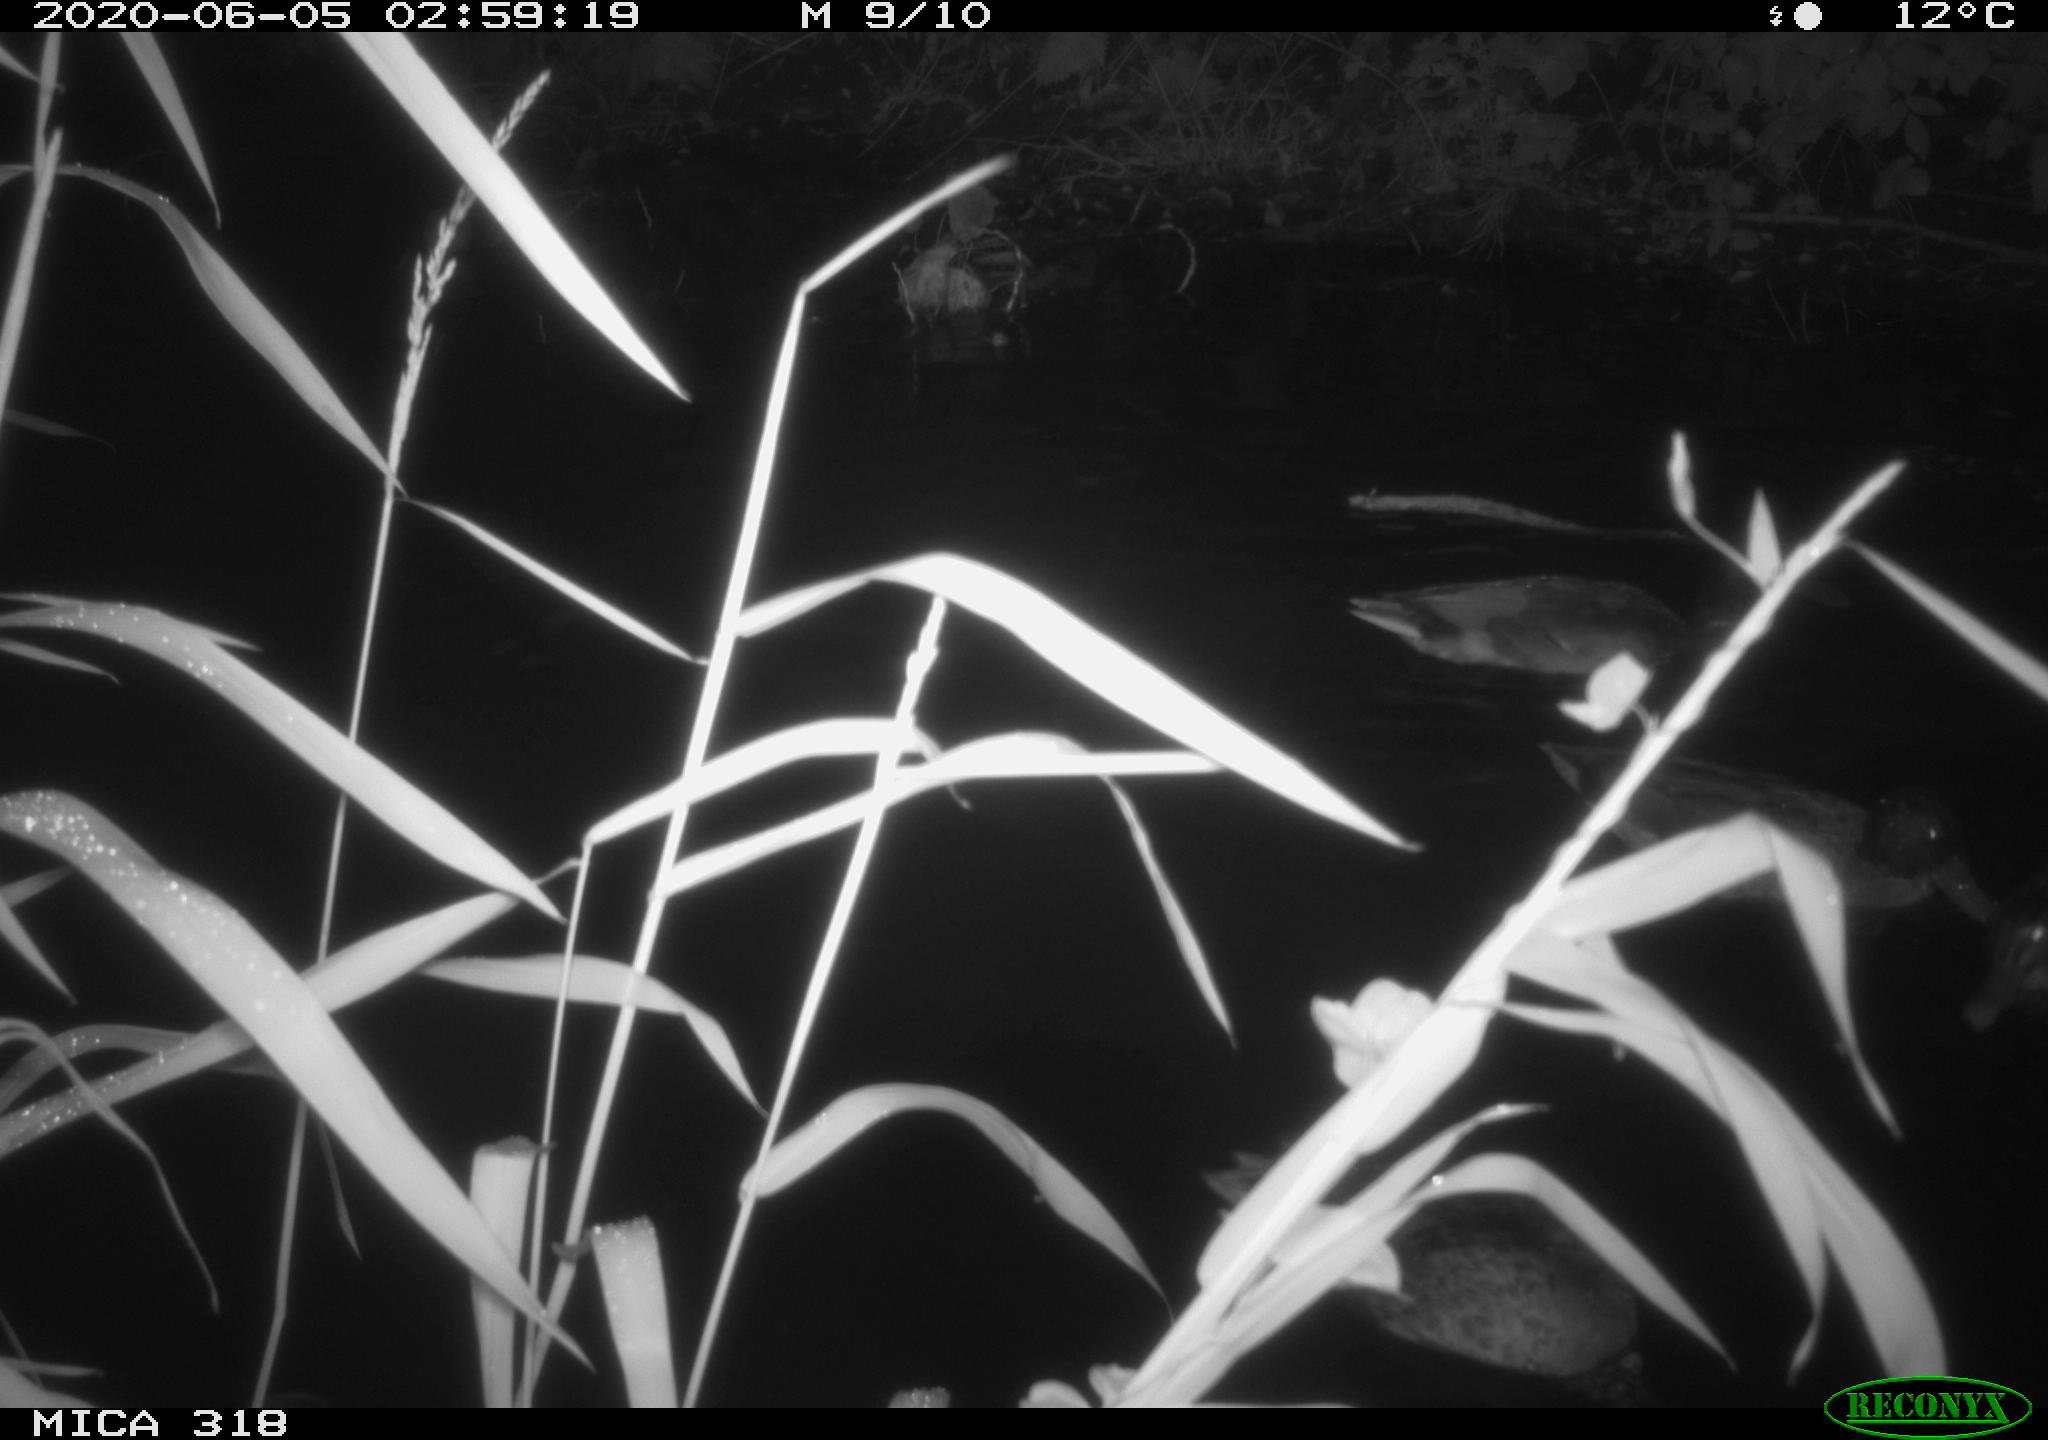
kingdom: Animalia
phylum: Chordata
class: Aves
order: Anseriformes
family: Anatidae
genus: Anas
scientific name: Anas platyrhynchos
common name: Mallard
